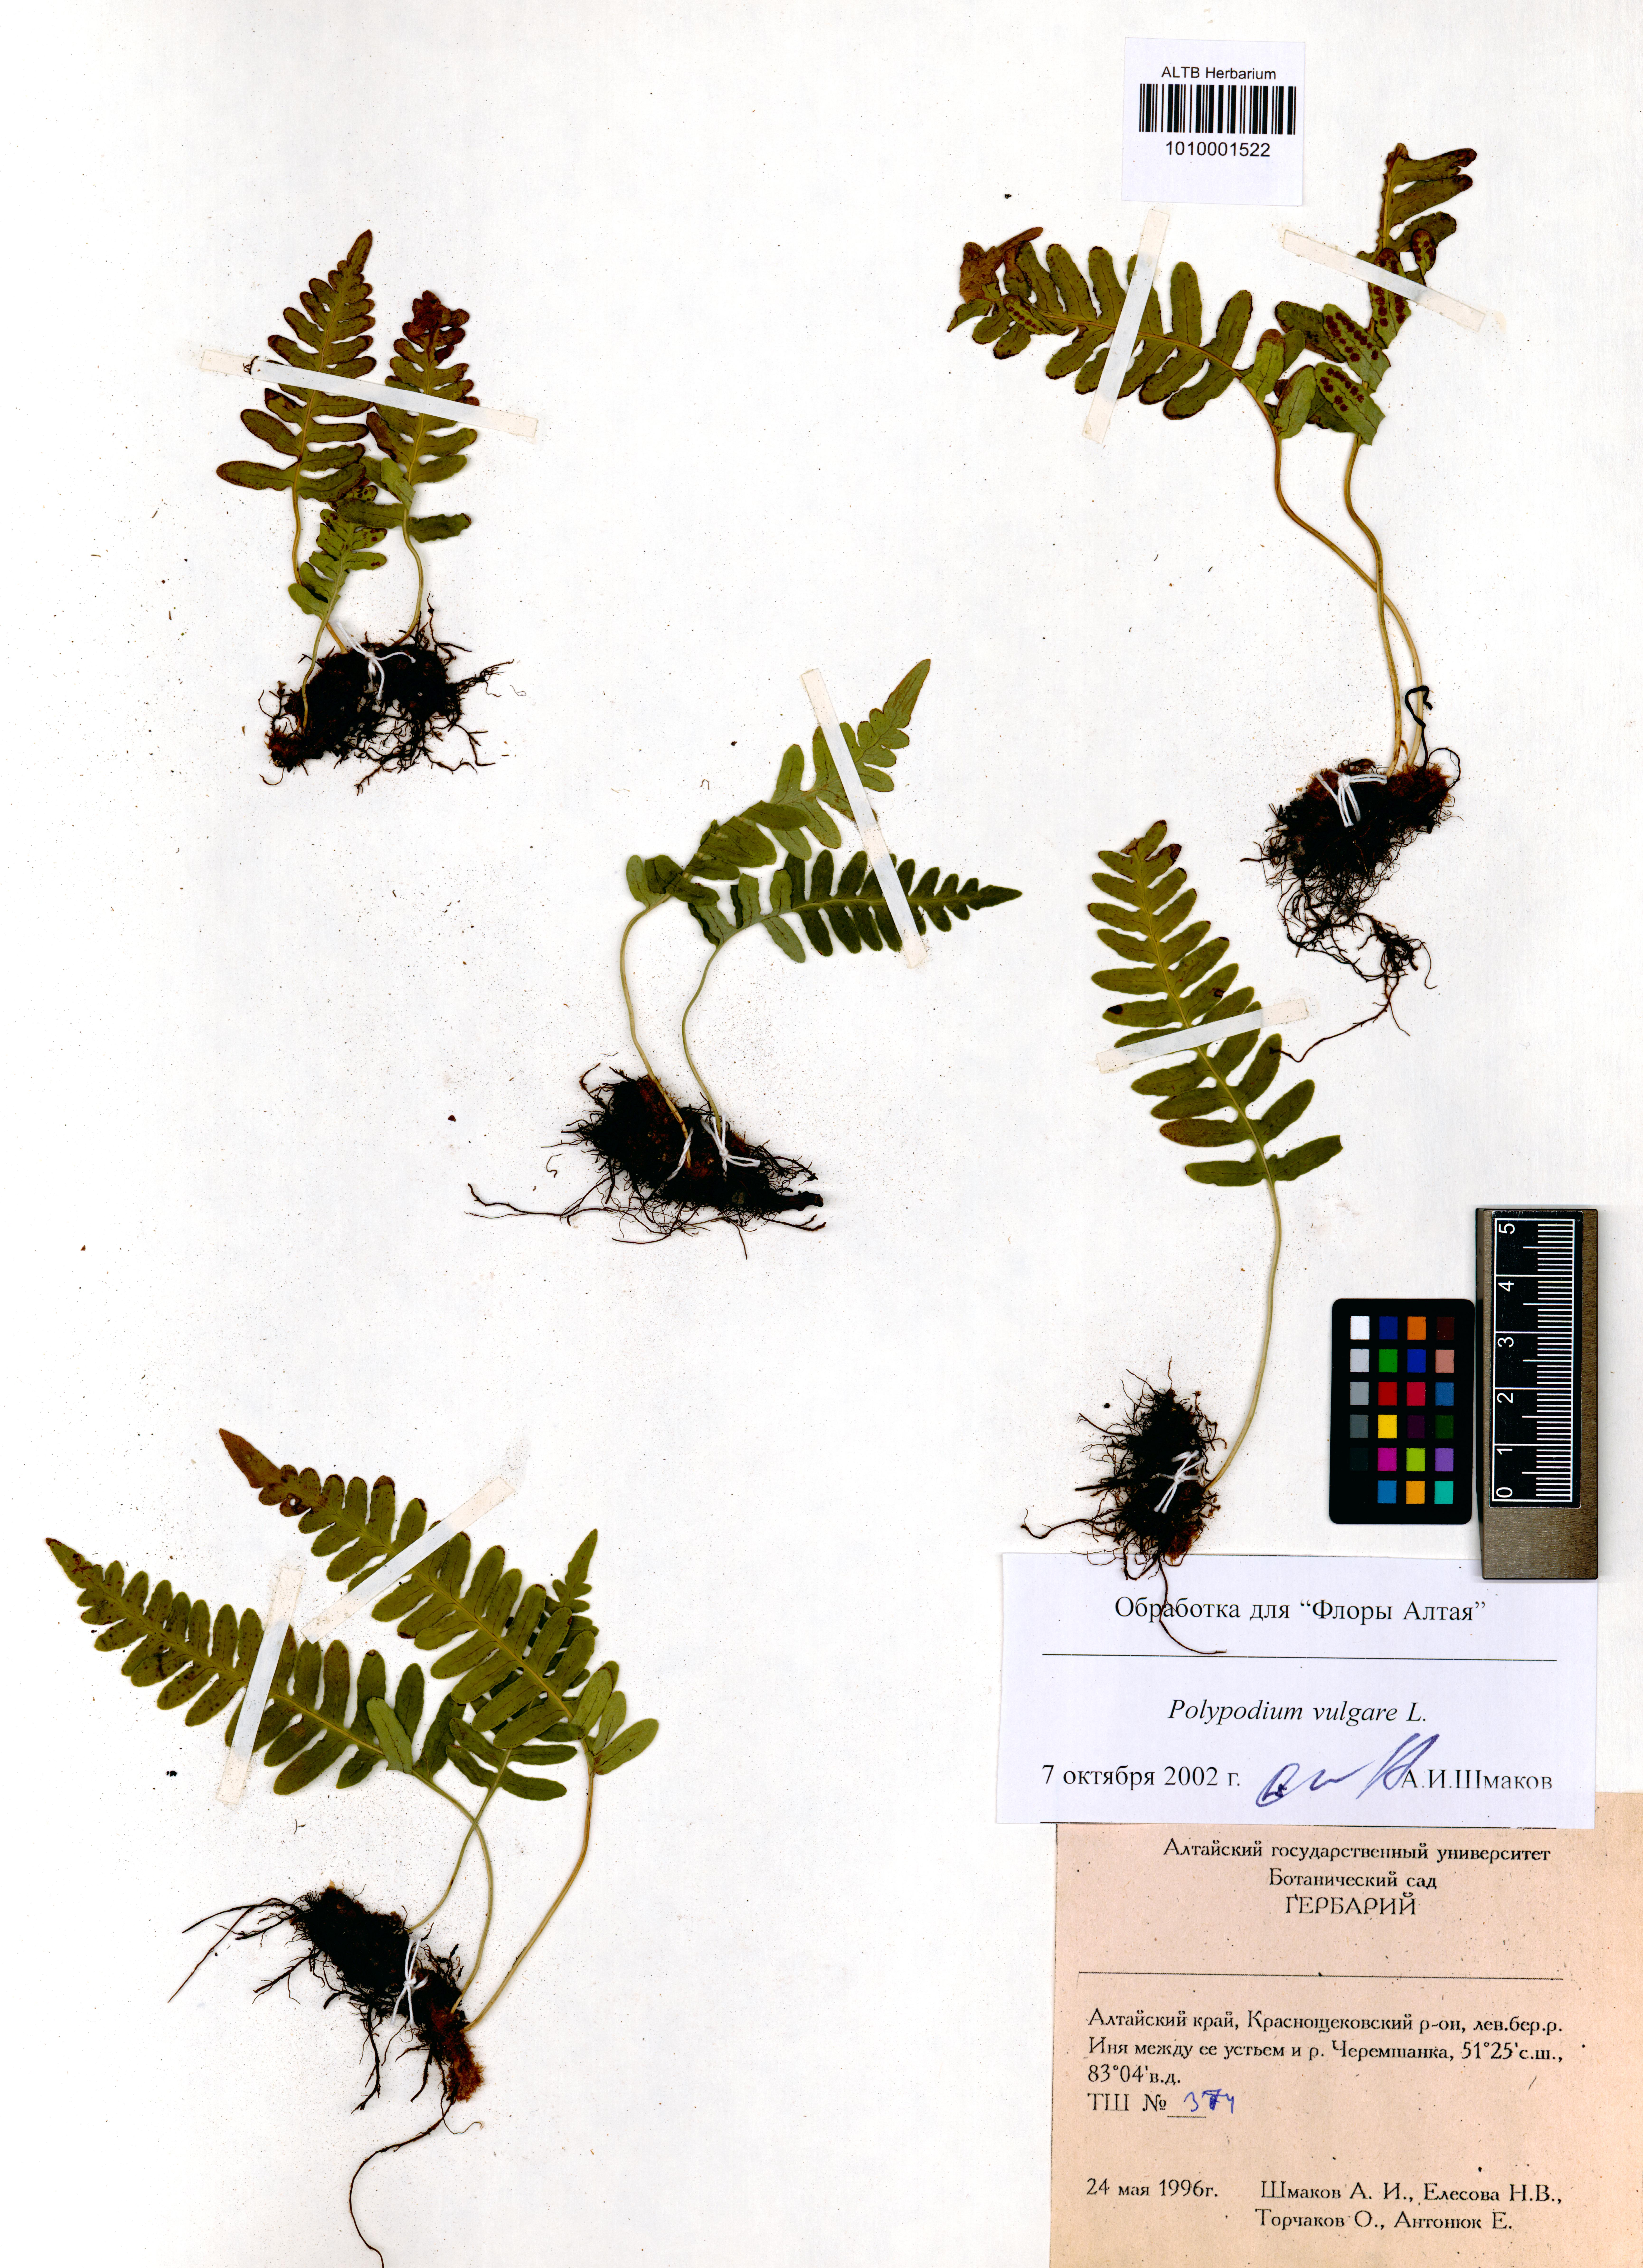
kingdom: Plantae
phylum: Tracheophyta
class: Polypodiopsida
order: Polypodiales
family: Polypodiaceae
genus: Polypodium
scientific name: Polypodium vulgare
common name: Common polypody
